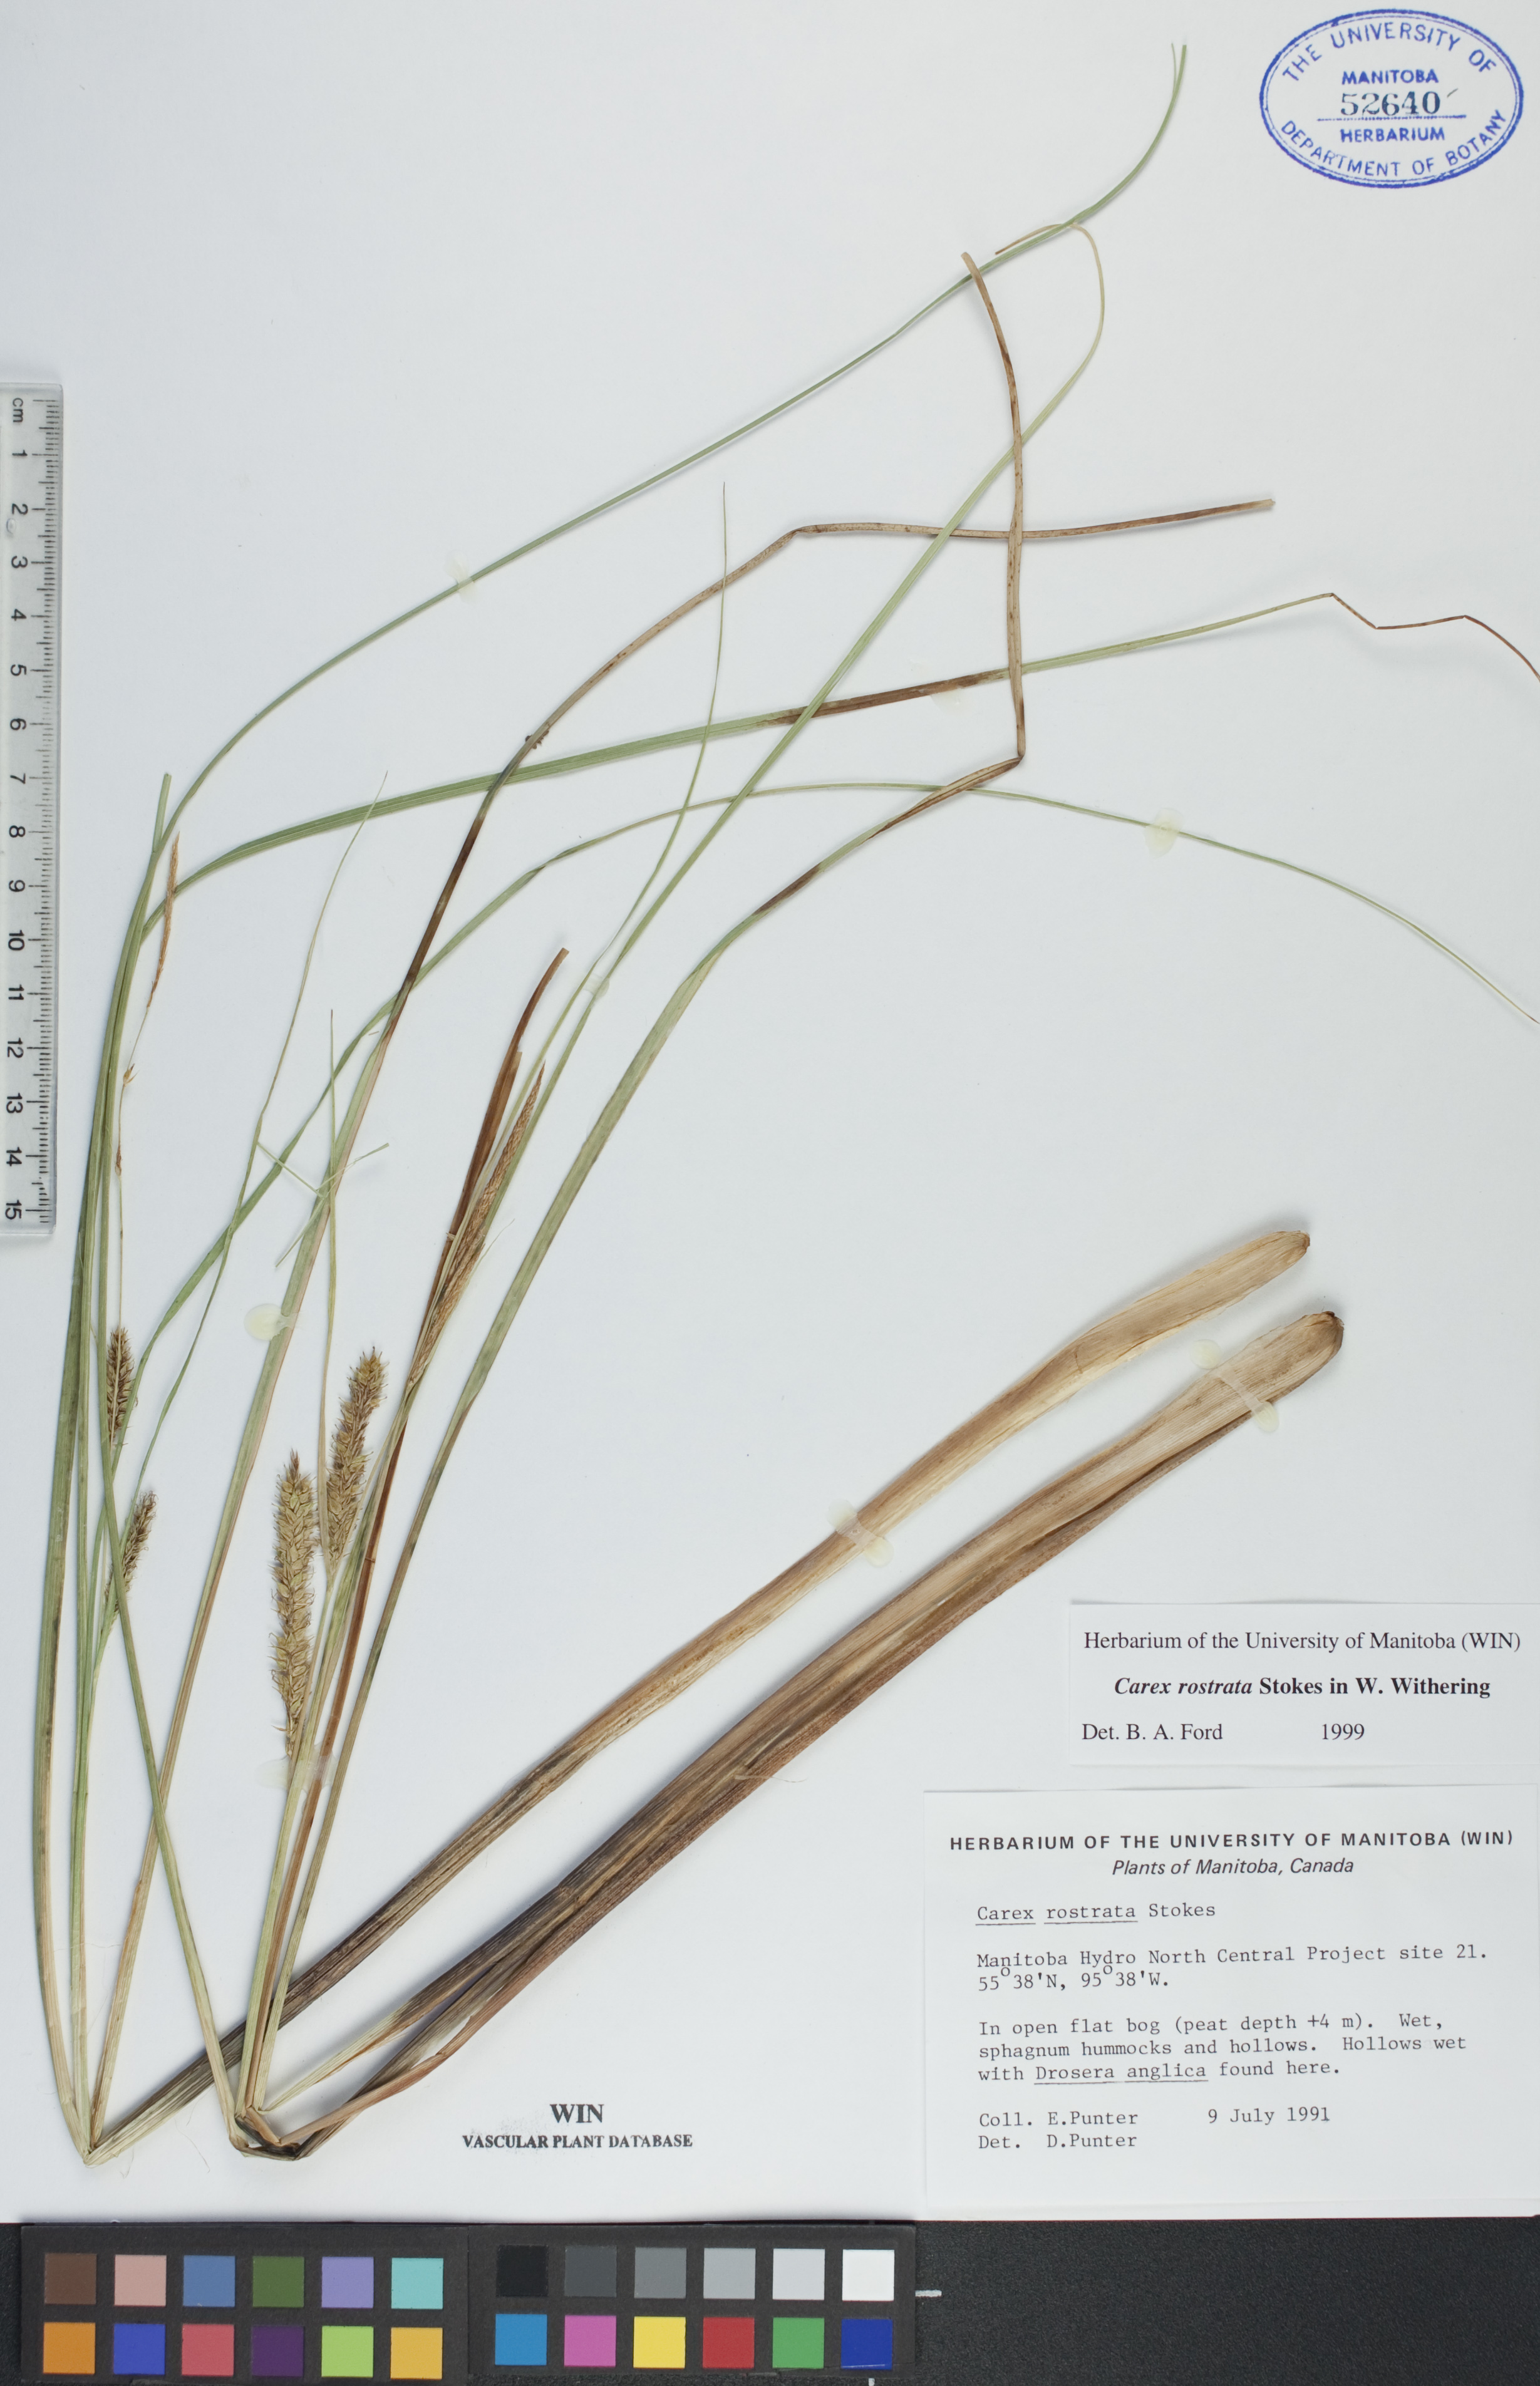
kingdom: Plantae
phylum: Tracheophyta
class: Liliopsida
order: Poales
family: Cyperaceae
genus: Carex
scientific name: Carex rostrata
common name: Bottle sedge
